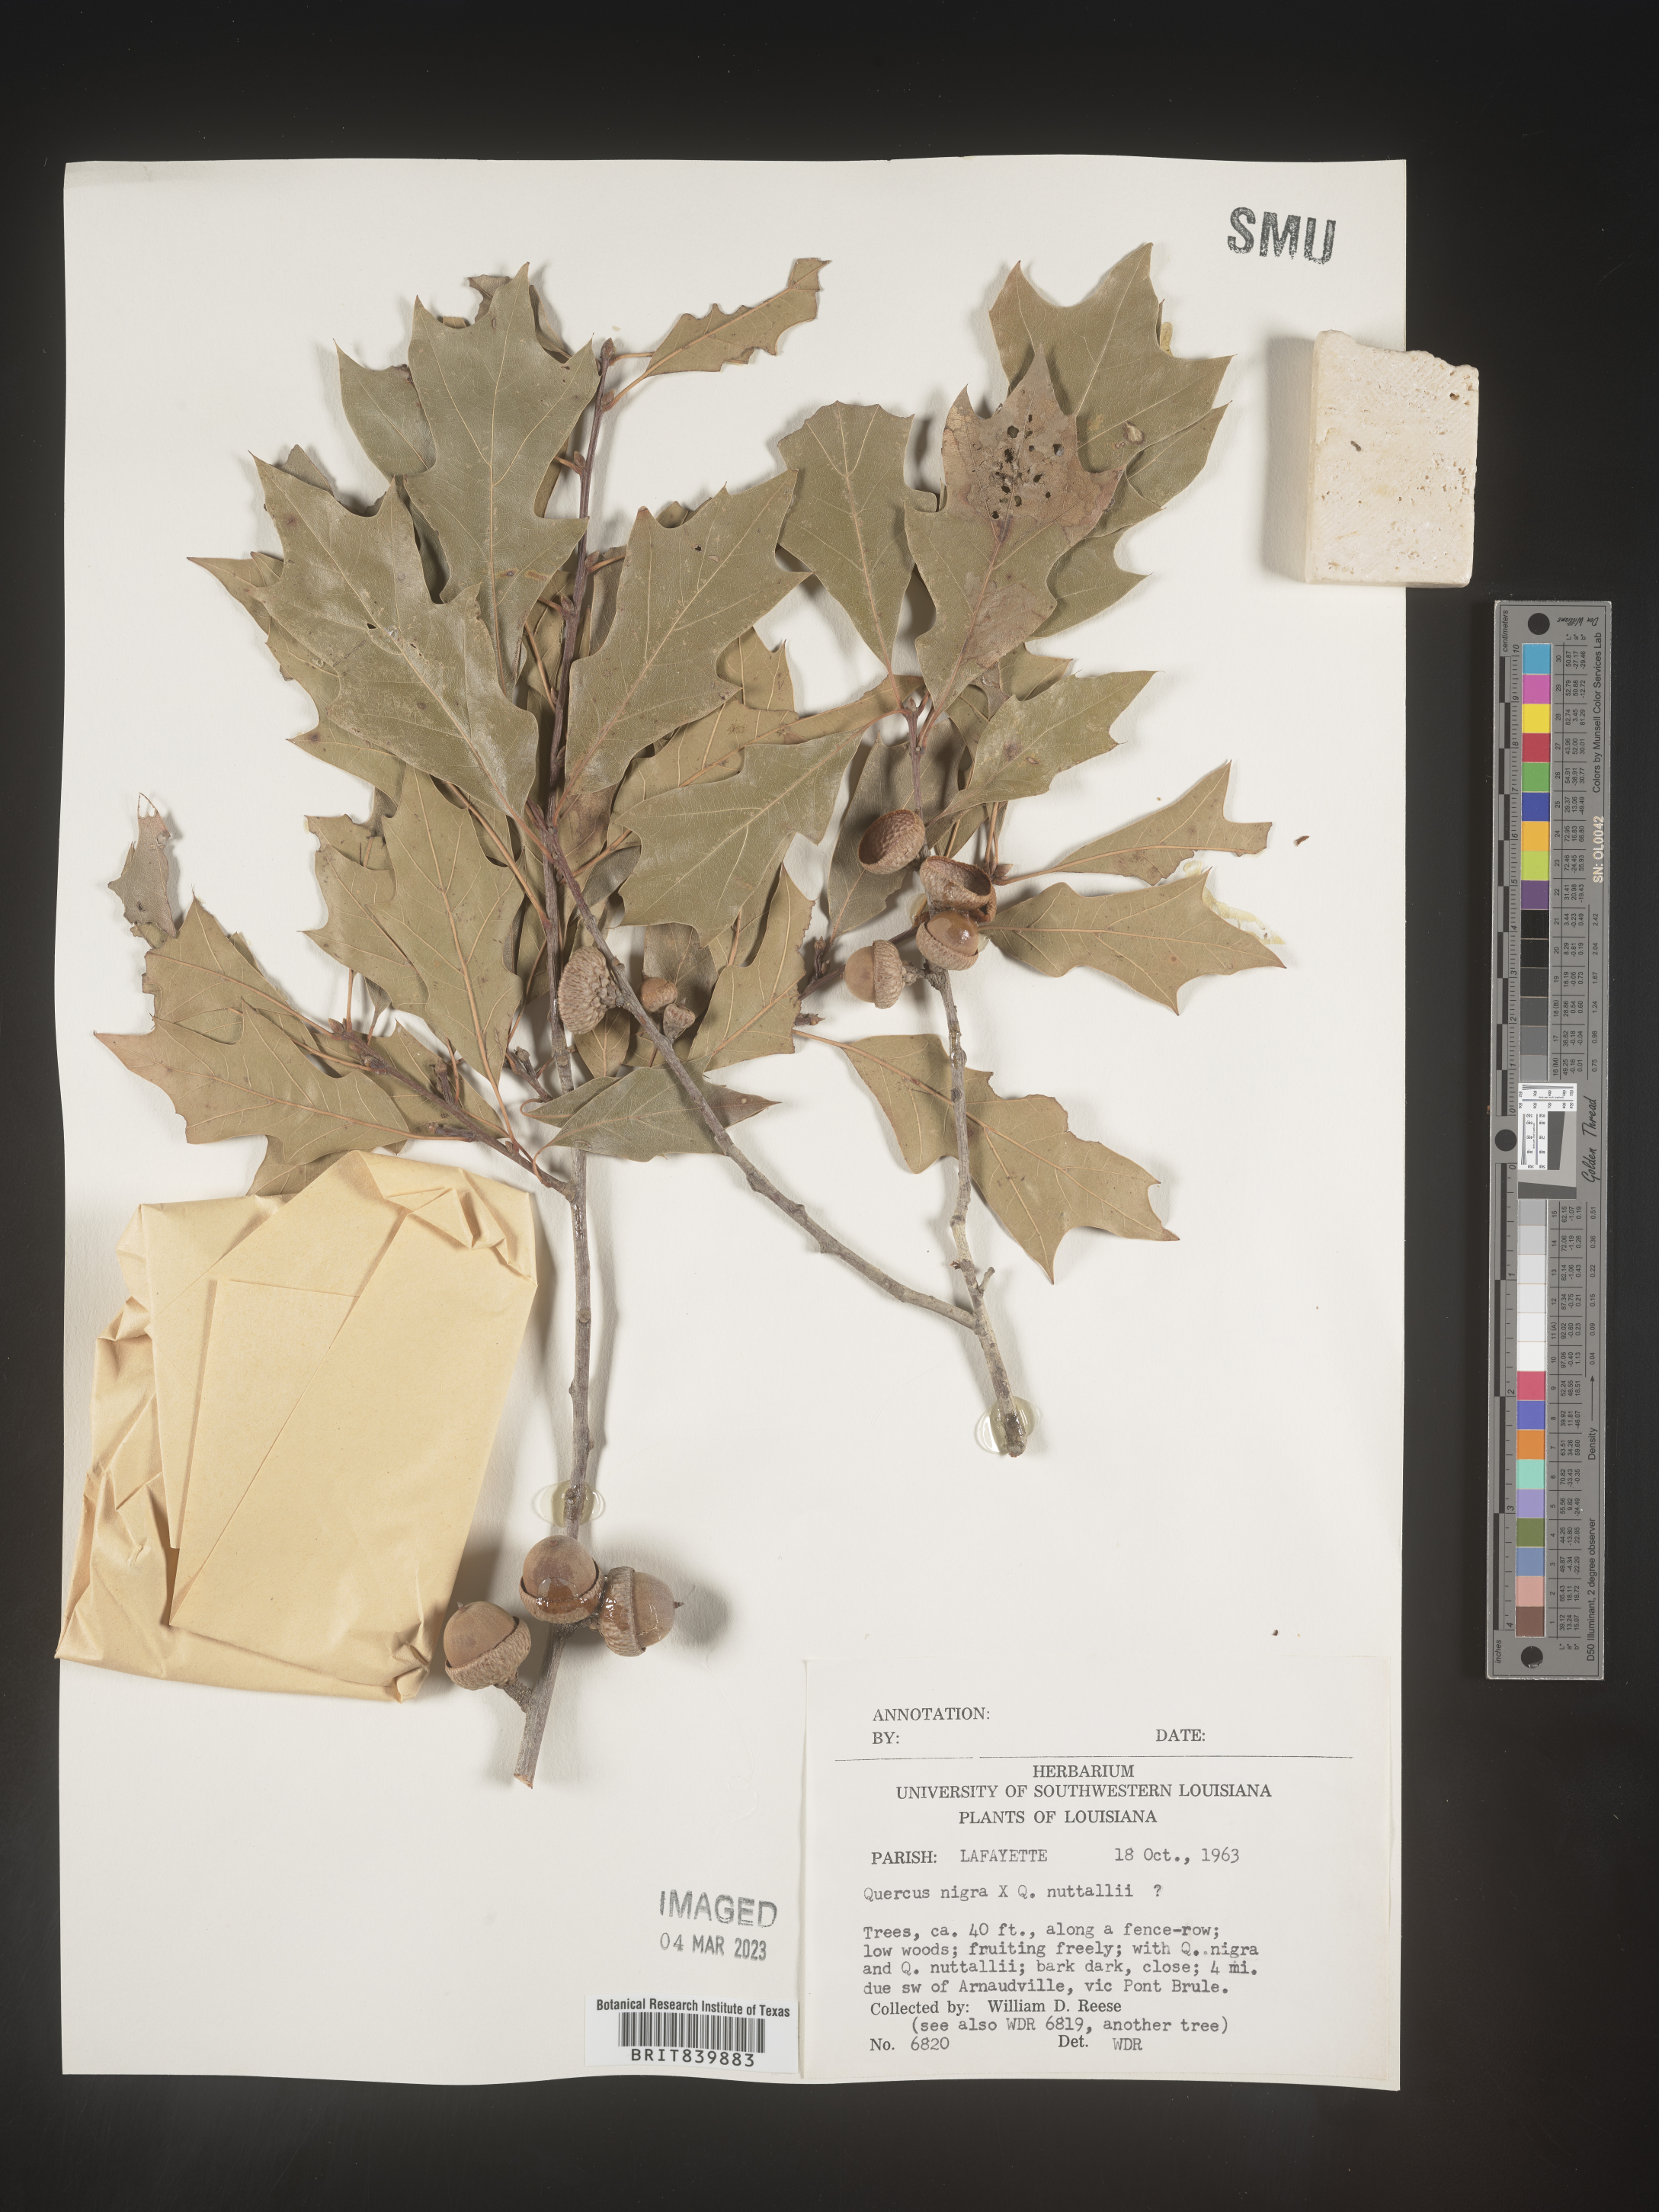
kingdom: Plantae
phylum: Tracheophyta
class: Magnoliopsida
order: Fagales
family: Fagaceae
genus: Quercus
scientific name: Quercus nigra
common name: Water oak
